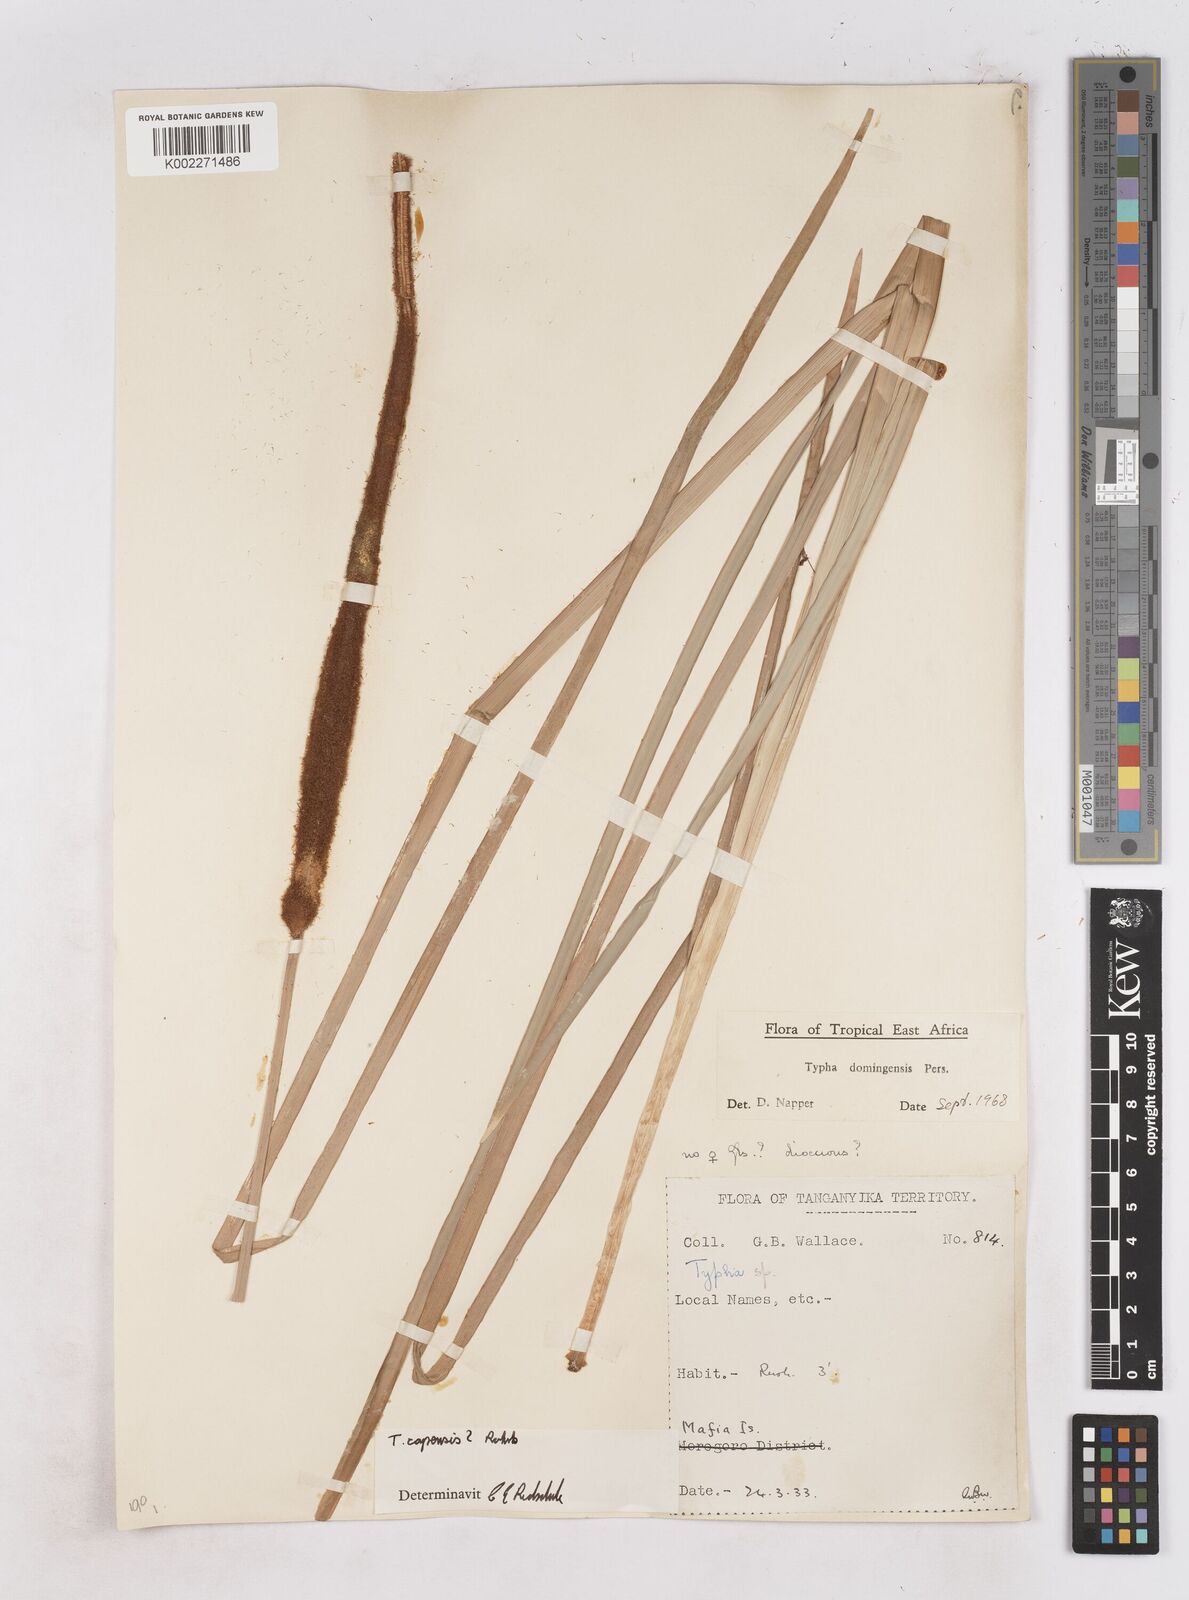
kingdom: Plantae
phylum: Tracheophyta
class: Liliopsida
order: Poales
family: Typhaceae
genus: Typha
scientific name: Typha domingensis
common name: Southern cattail
